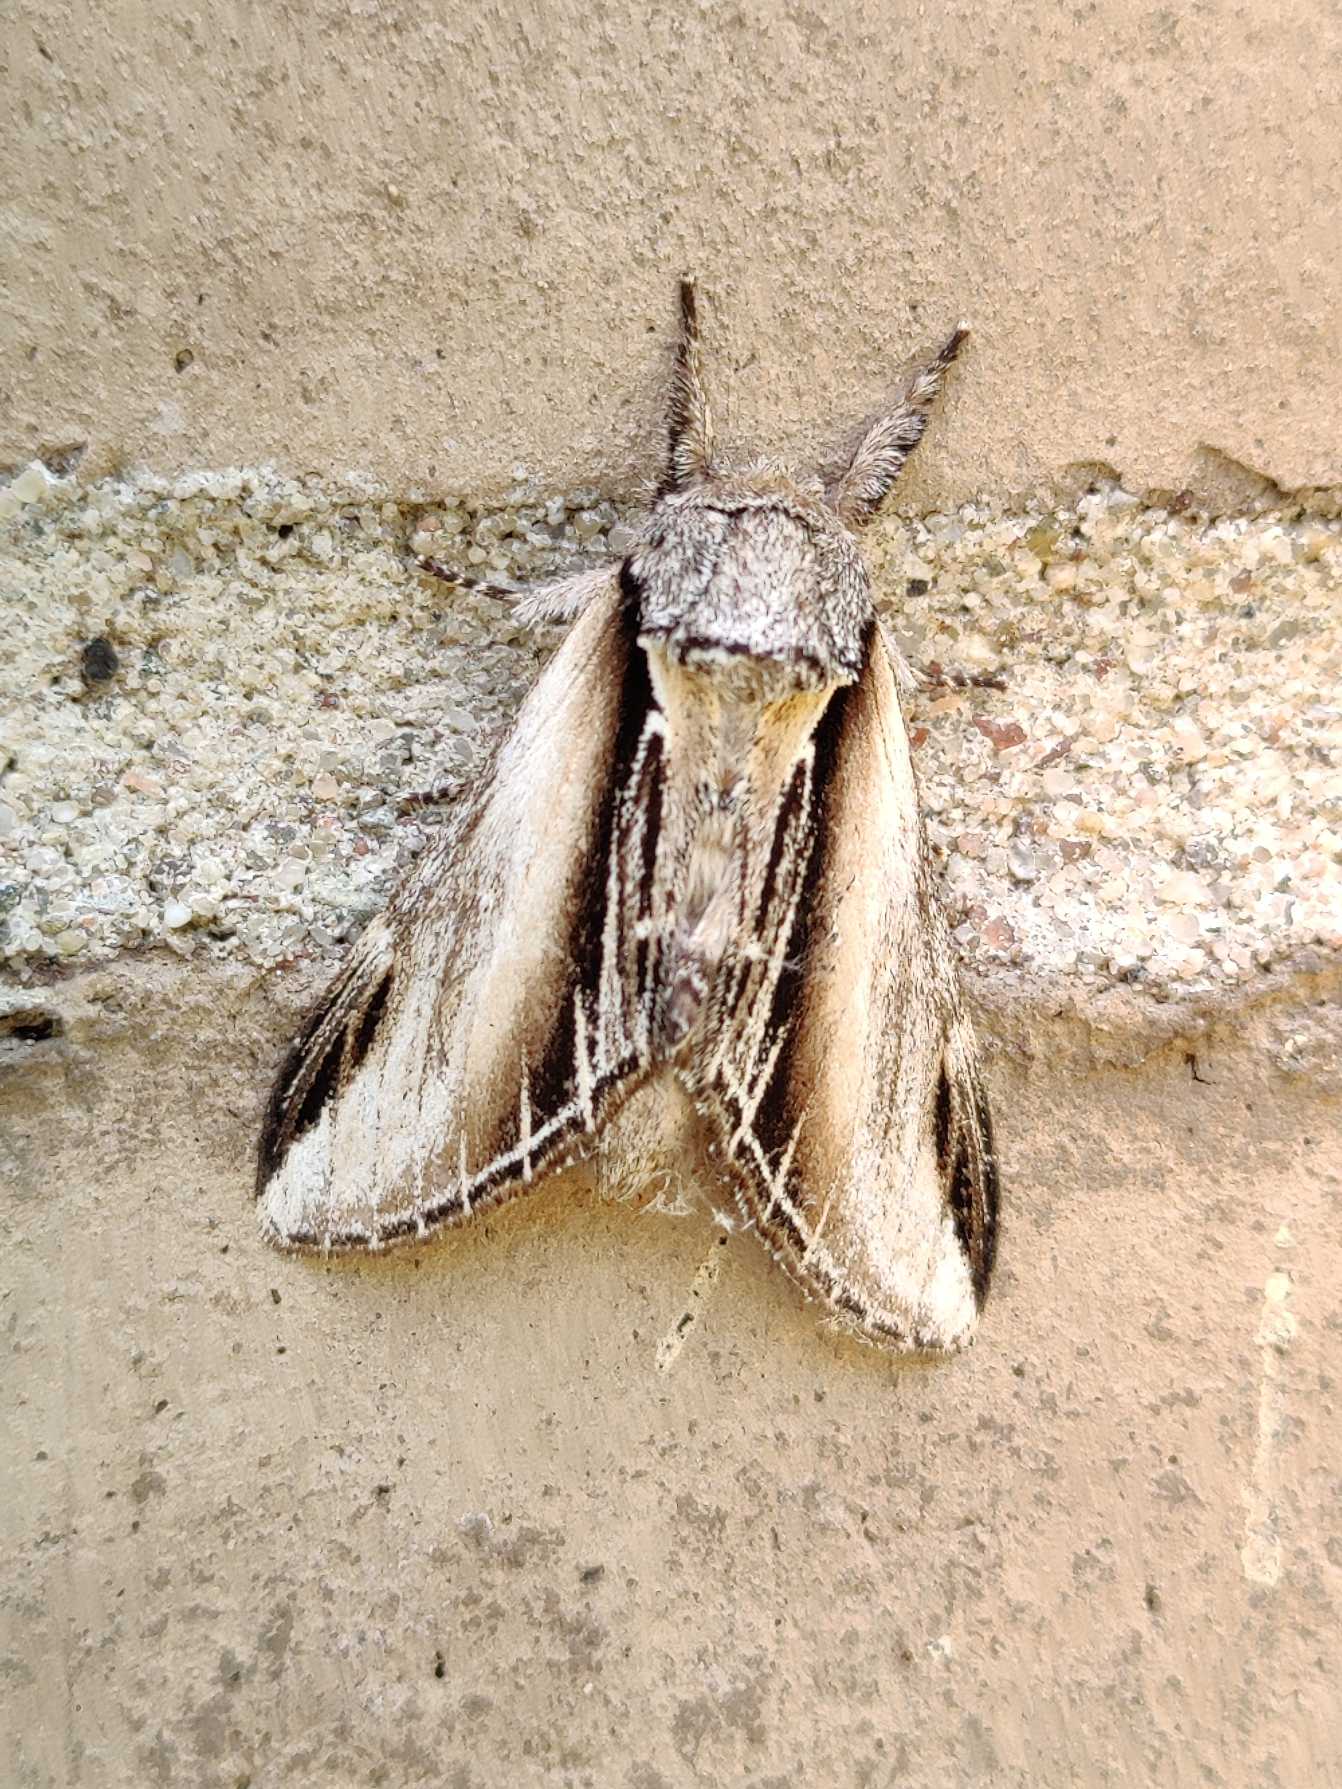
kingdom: Animalia
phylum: Arthropoda
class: Insecta
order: Lepidoptera
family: Notodontidae
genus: Pheosia
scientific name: Pheosia tremula
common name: Poppelporcelænsspinder
